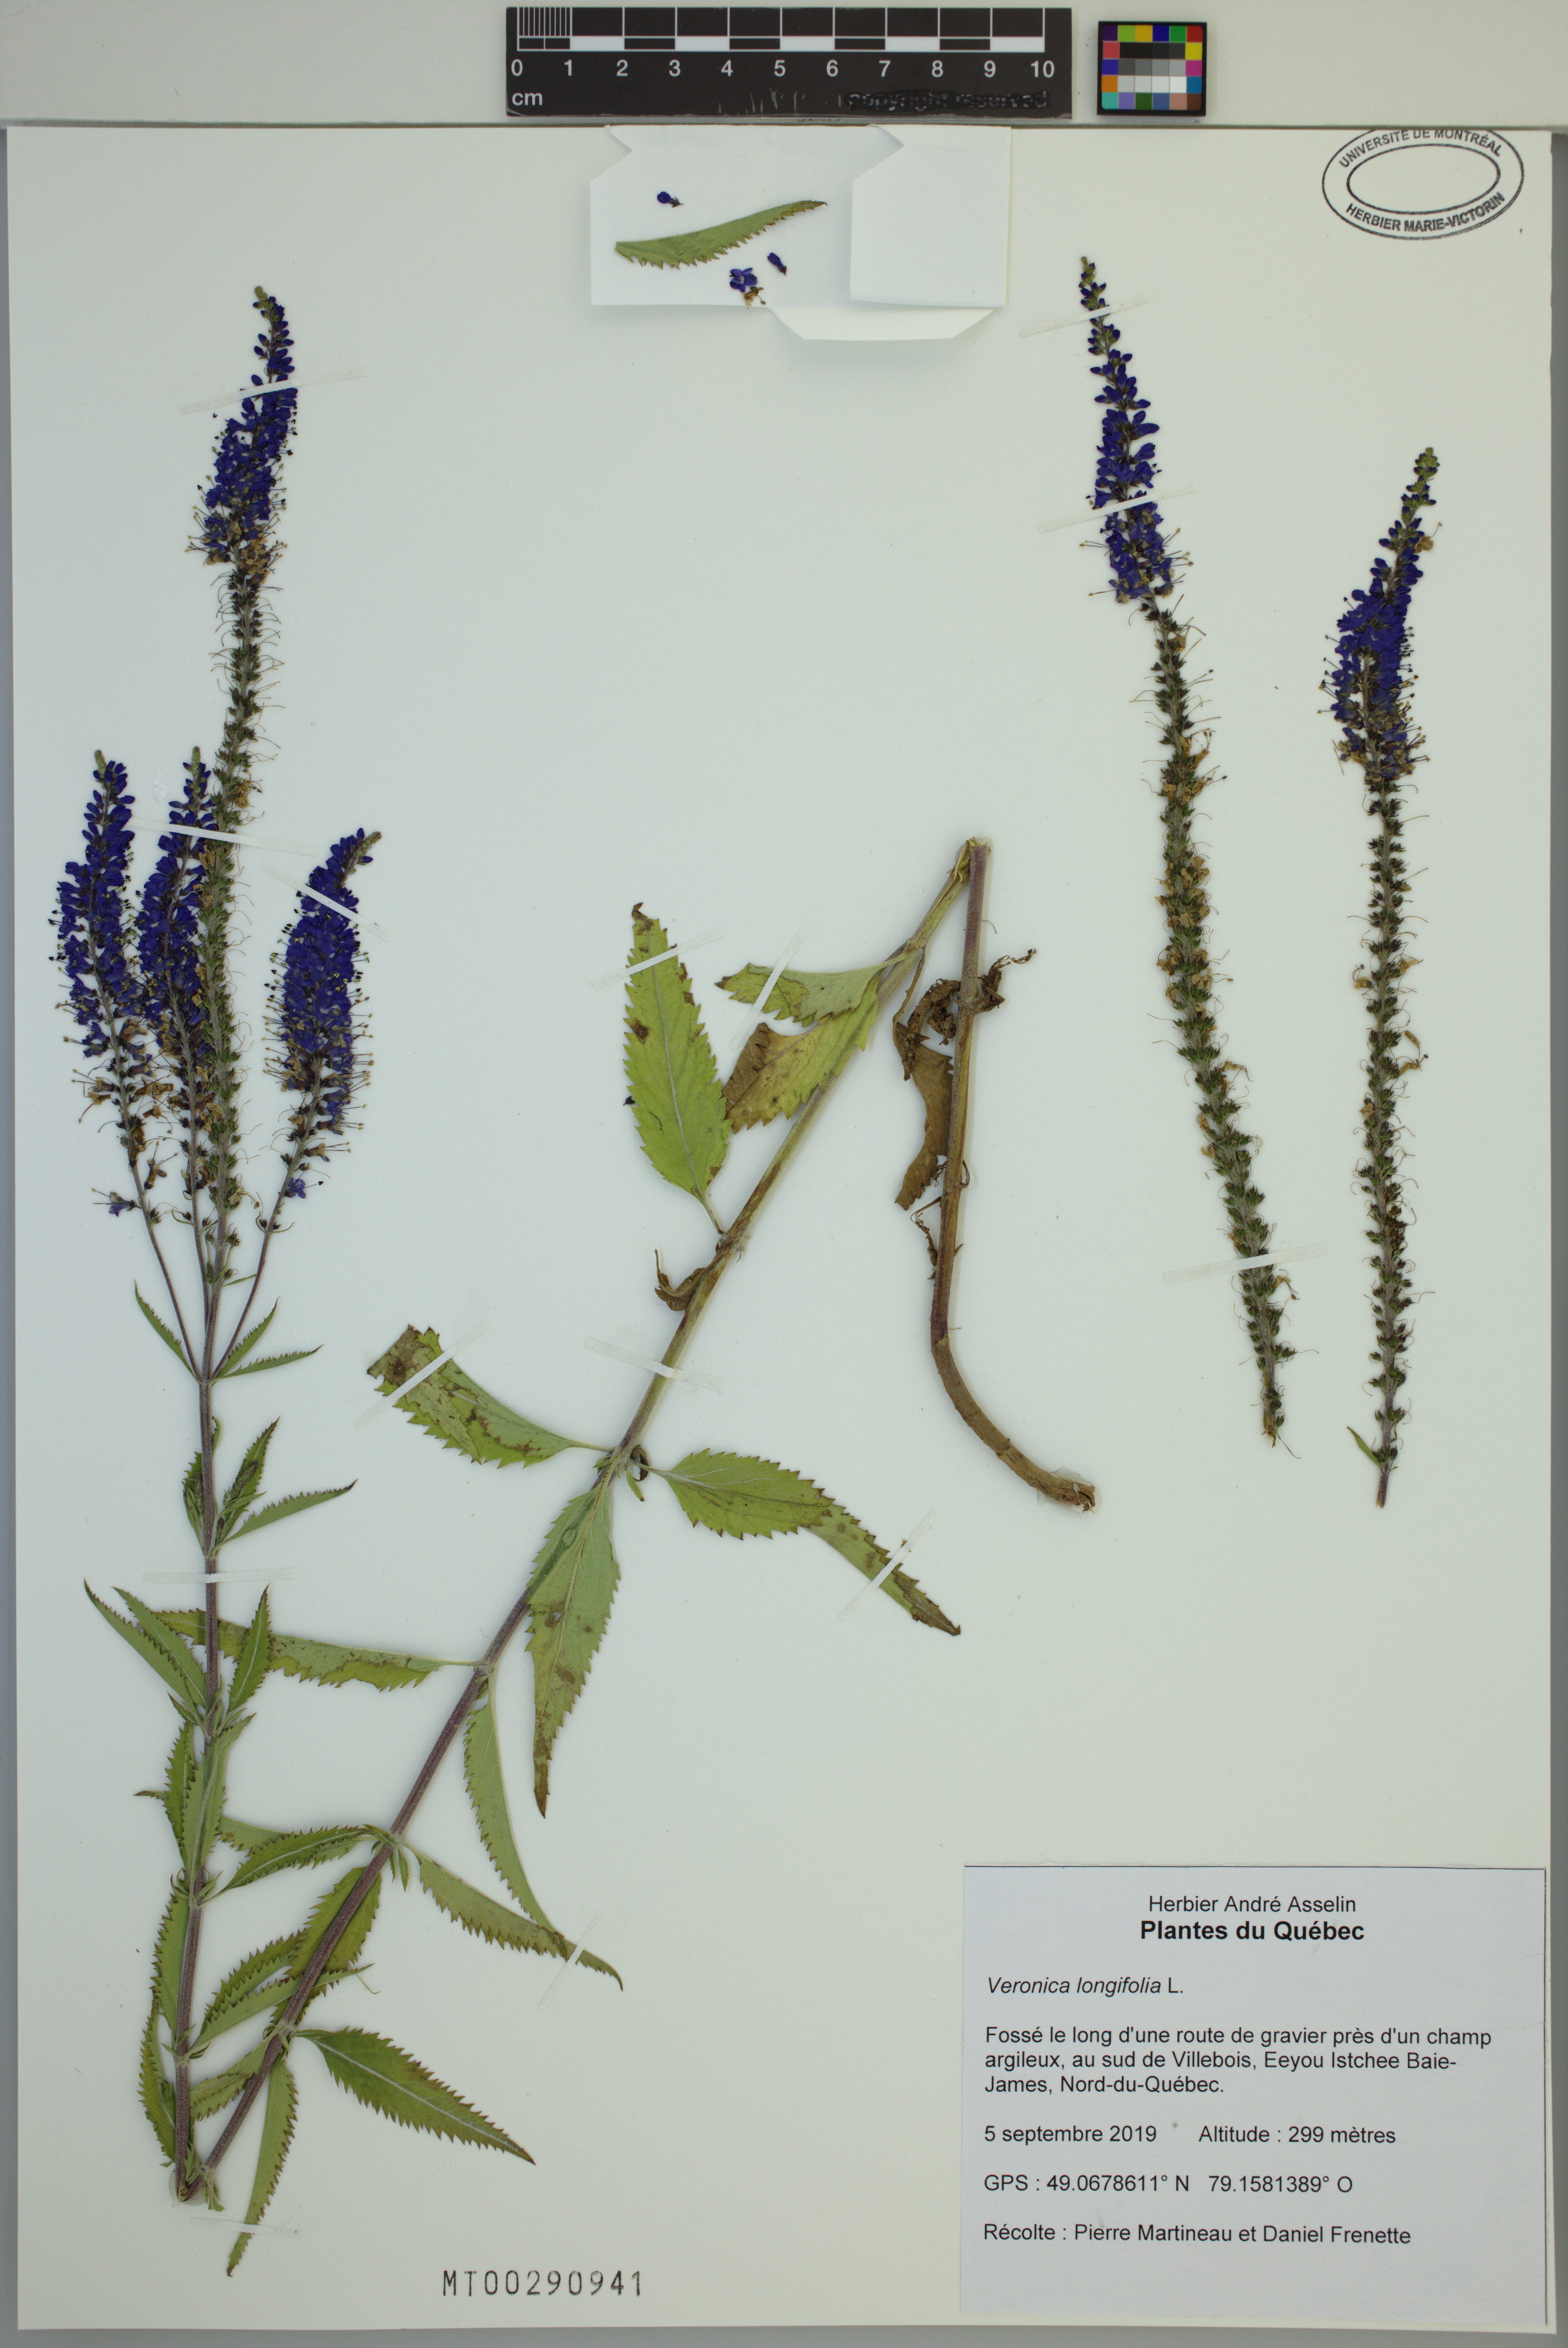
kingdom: Plantae
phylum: Tracheophyta
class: Magnoliopsida
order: Lamiales
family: Plantaginaceae
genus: Veronica
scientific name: Veronica longifolia
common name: Garden speedwell
